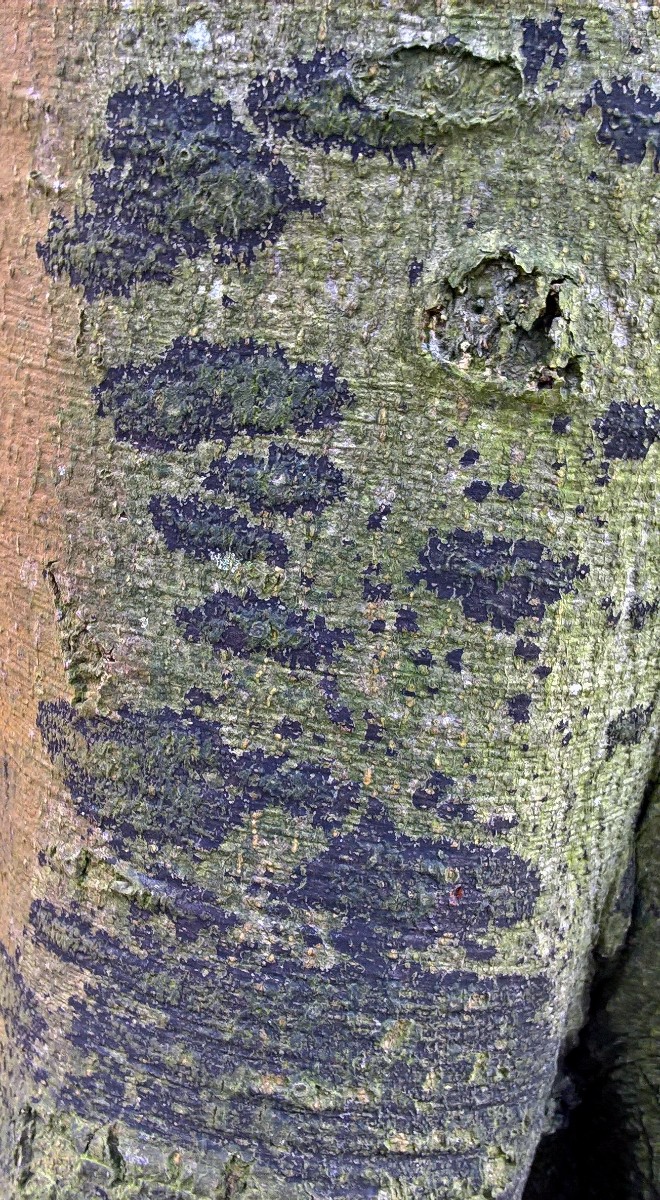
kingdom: Fungi
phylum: Ascomycota
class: Leotiomycetes
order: Rhytismatales
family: Ascodichaenaceae
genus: Ascodichaena
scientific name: Ascodichaena rugosa
